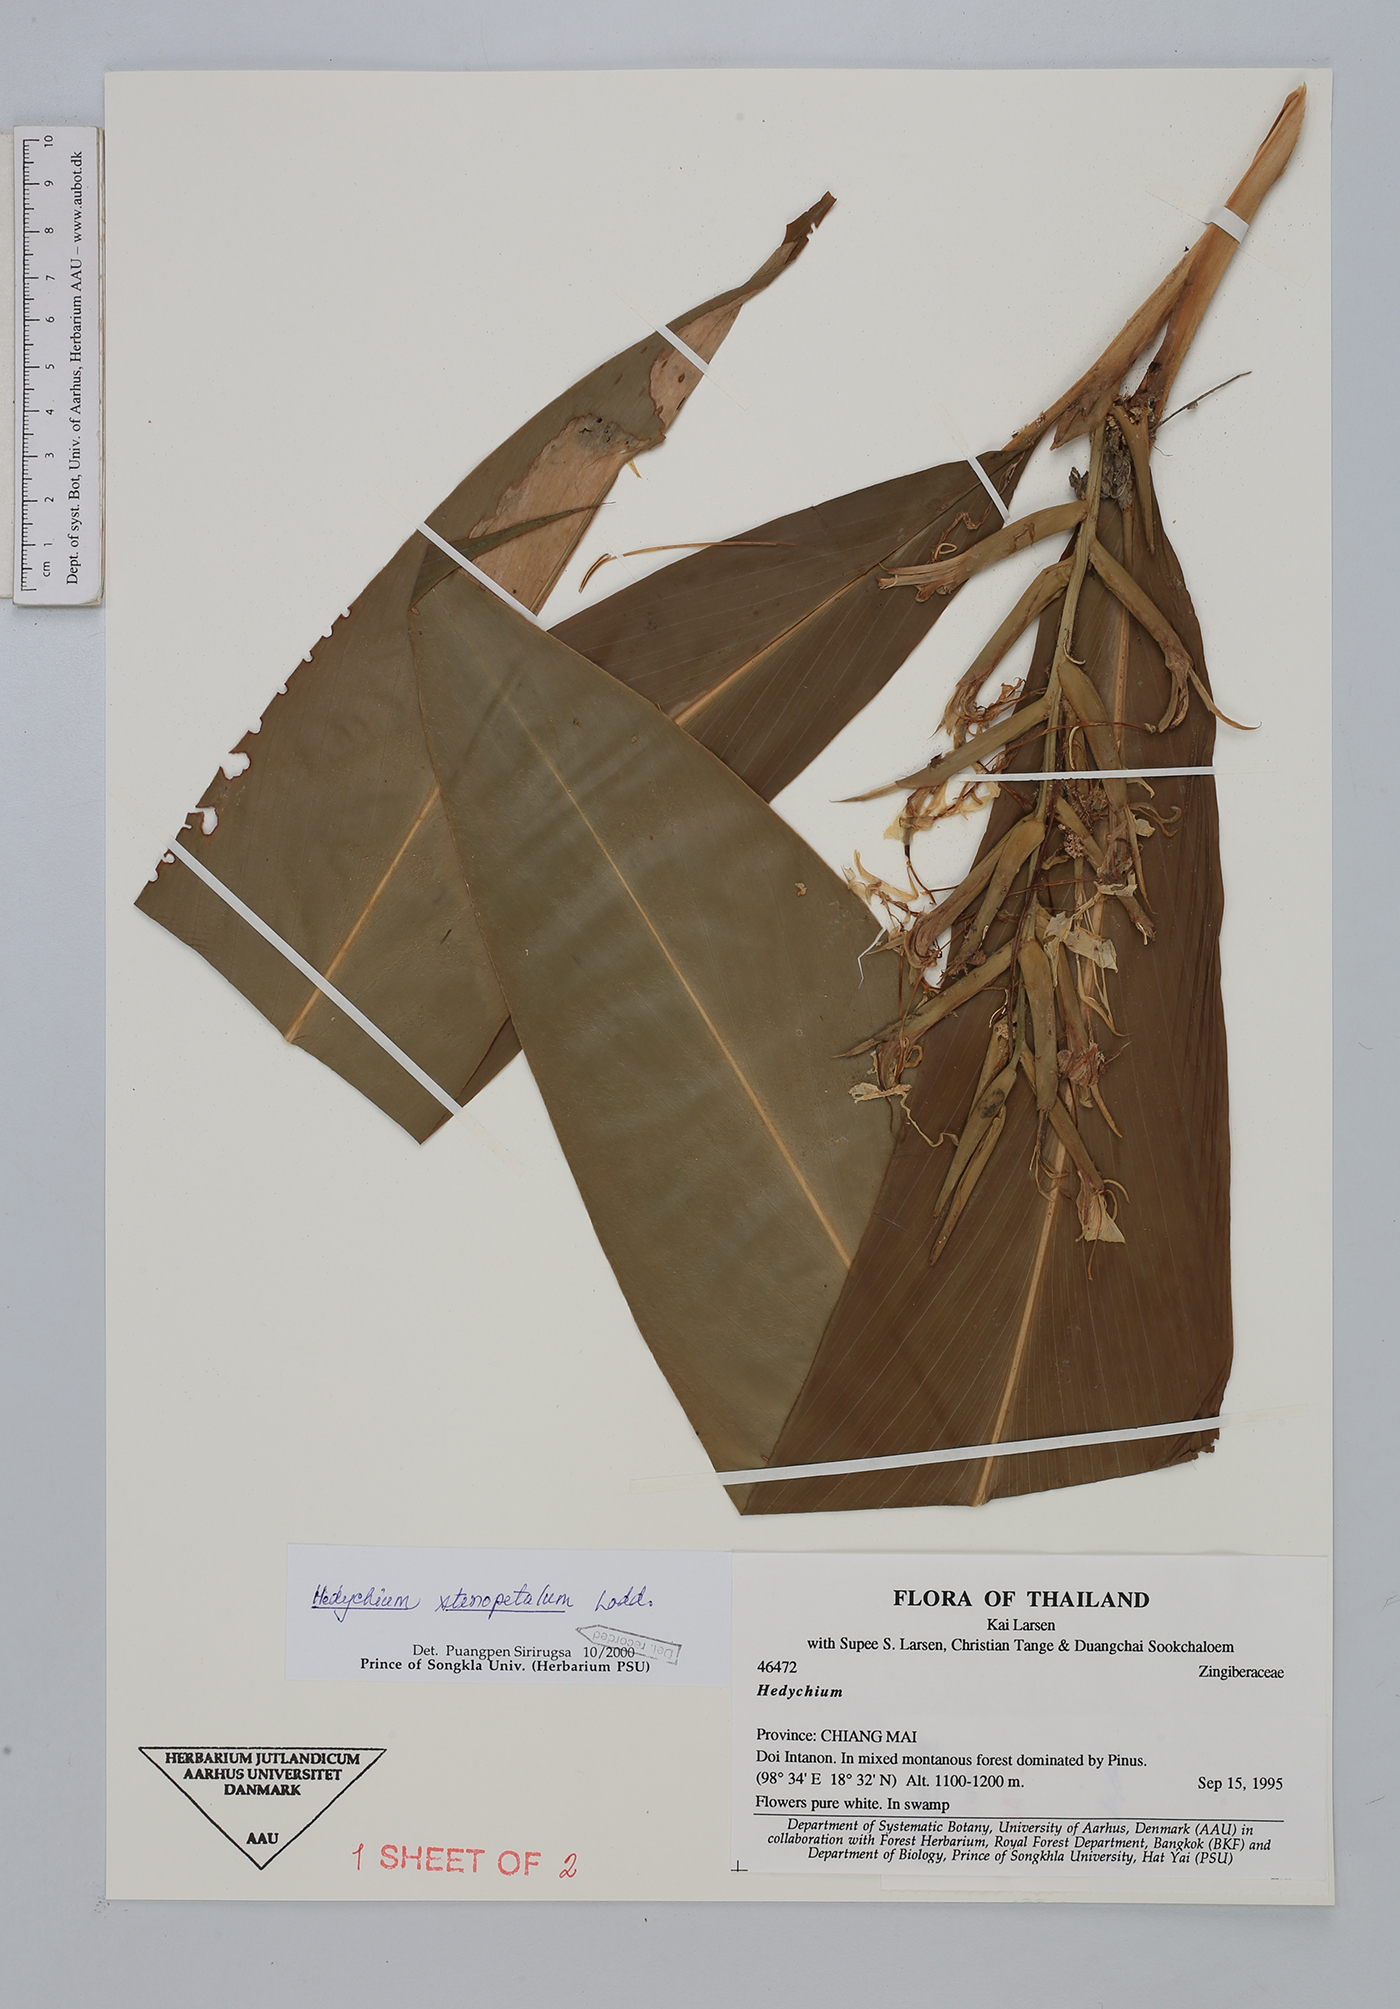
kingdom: Plantae
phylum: Tracheophyta
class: Liliopsida
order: Zingiberales
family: Zingiberaceae
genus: Hedychium
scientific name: Hedychium stenopetalum
